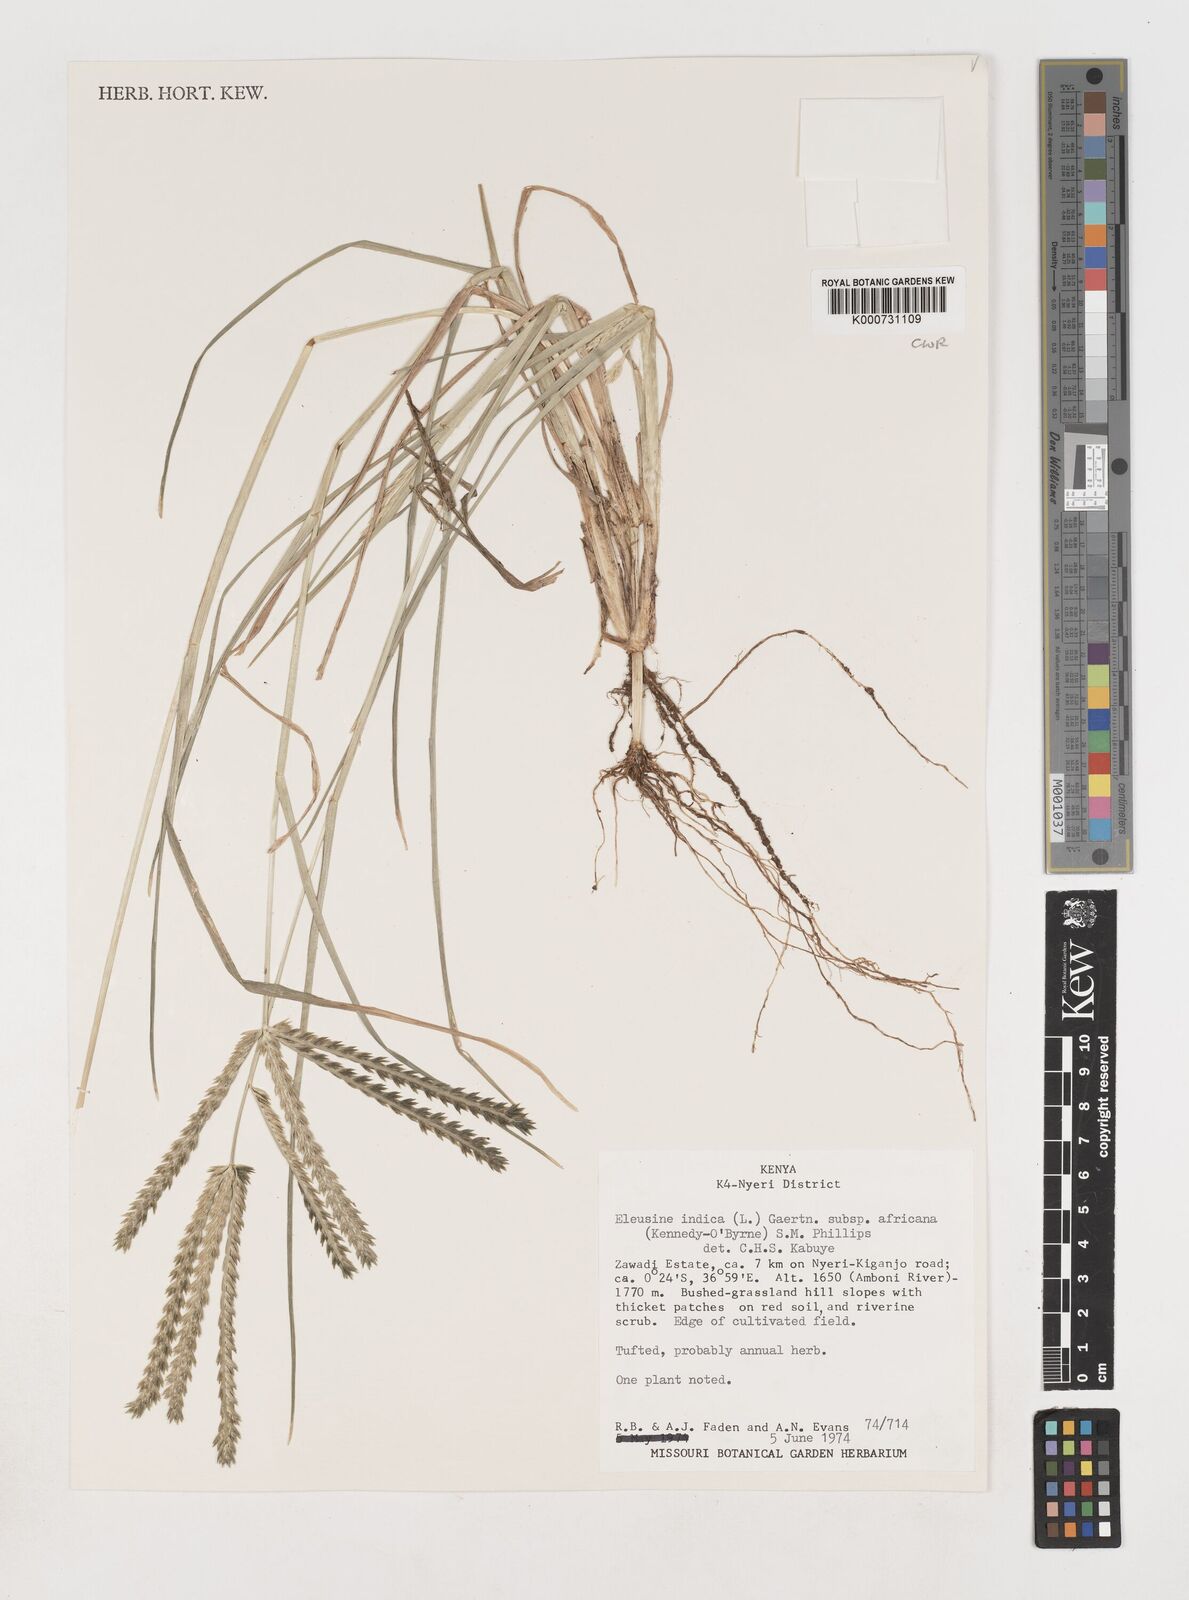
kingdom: Plantae
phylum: Tracheophyta
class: Liliopsida
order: Poales
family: Poaceae
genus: Eleusine
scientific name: Eleusine africana
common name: Wild african finger millet
